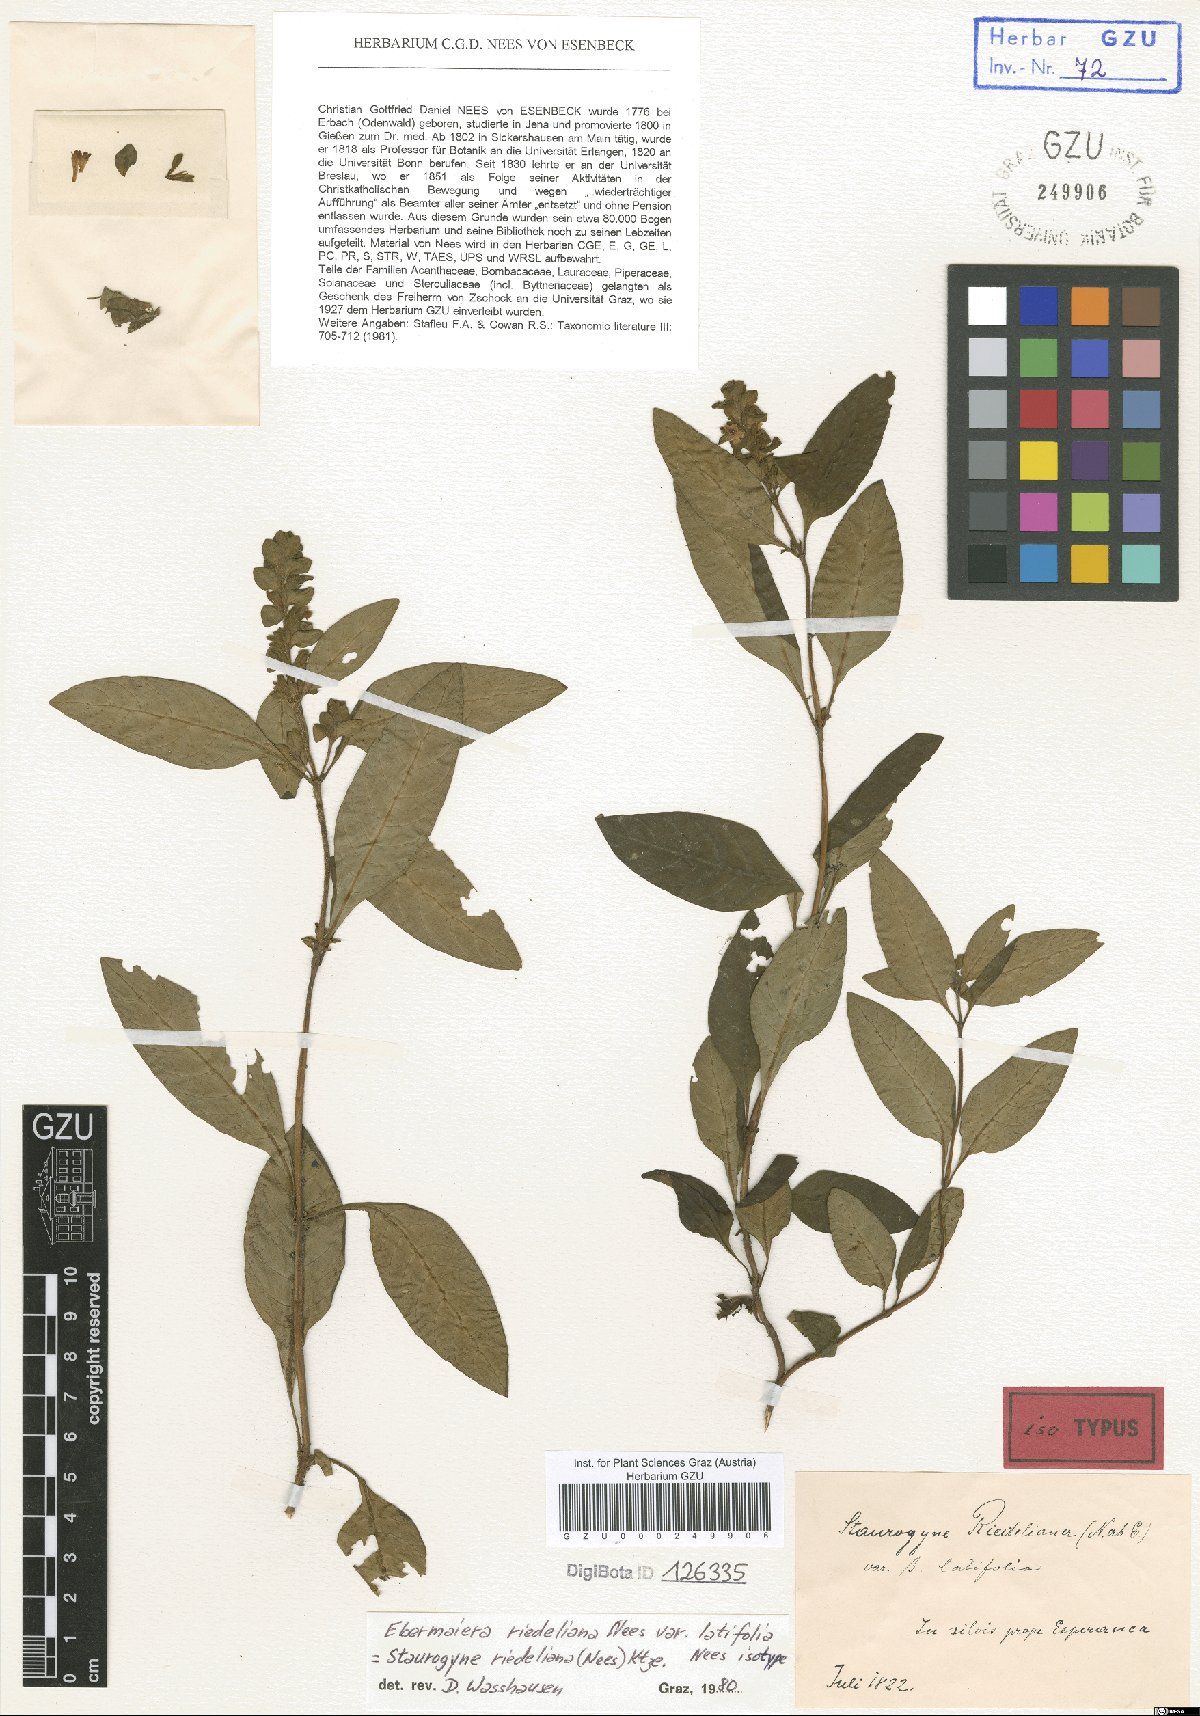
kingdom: Plantae
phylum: Tracheophyta
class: Magnoliopsida
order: Lamiales
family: Acanthaceae
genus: Staurogyne
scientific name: Staurogyne euryphylla
